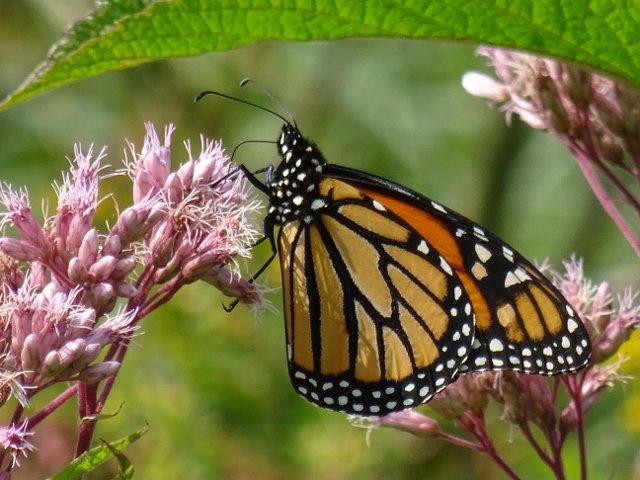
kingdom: Animalia
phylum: Arthropoda
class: Insecta
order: Lepidoptera
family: Nymphalidae
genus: Danaus
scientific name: Danaus plexippus
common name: Monarch
